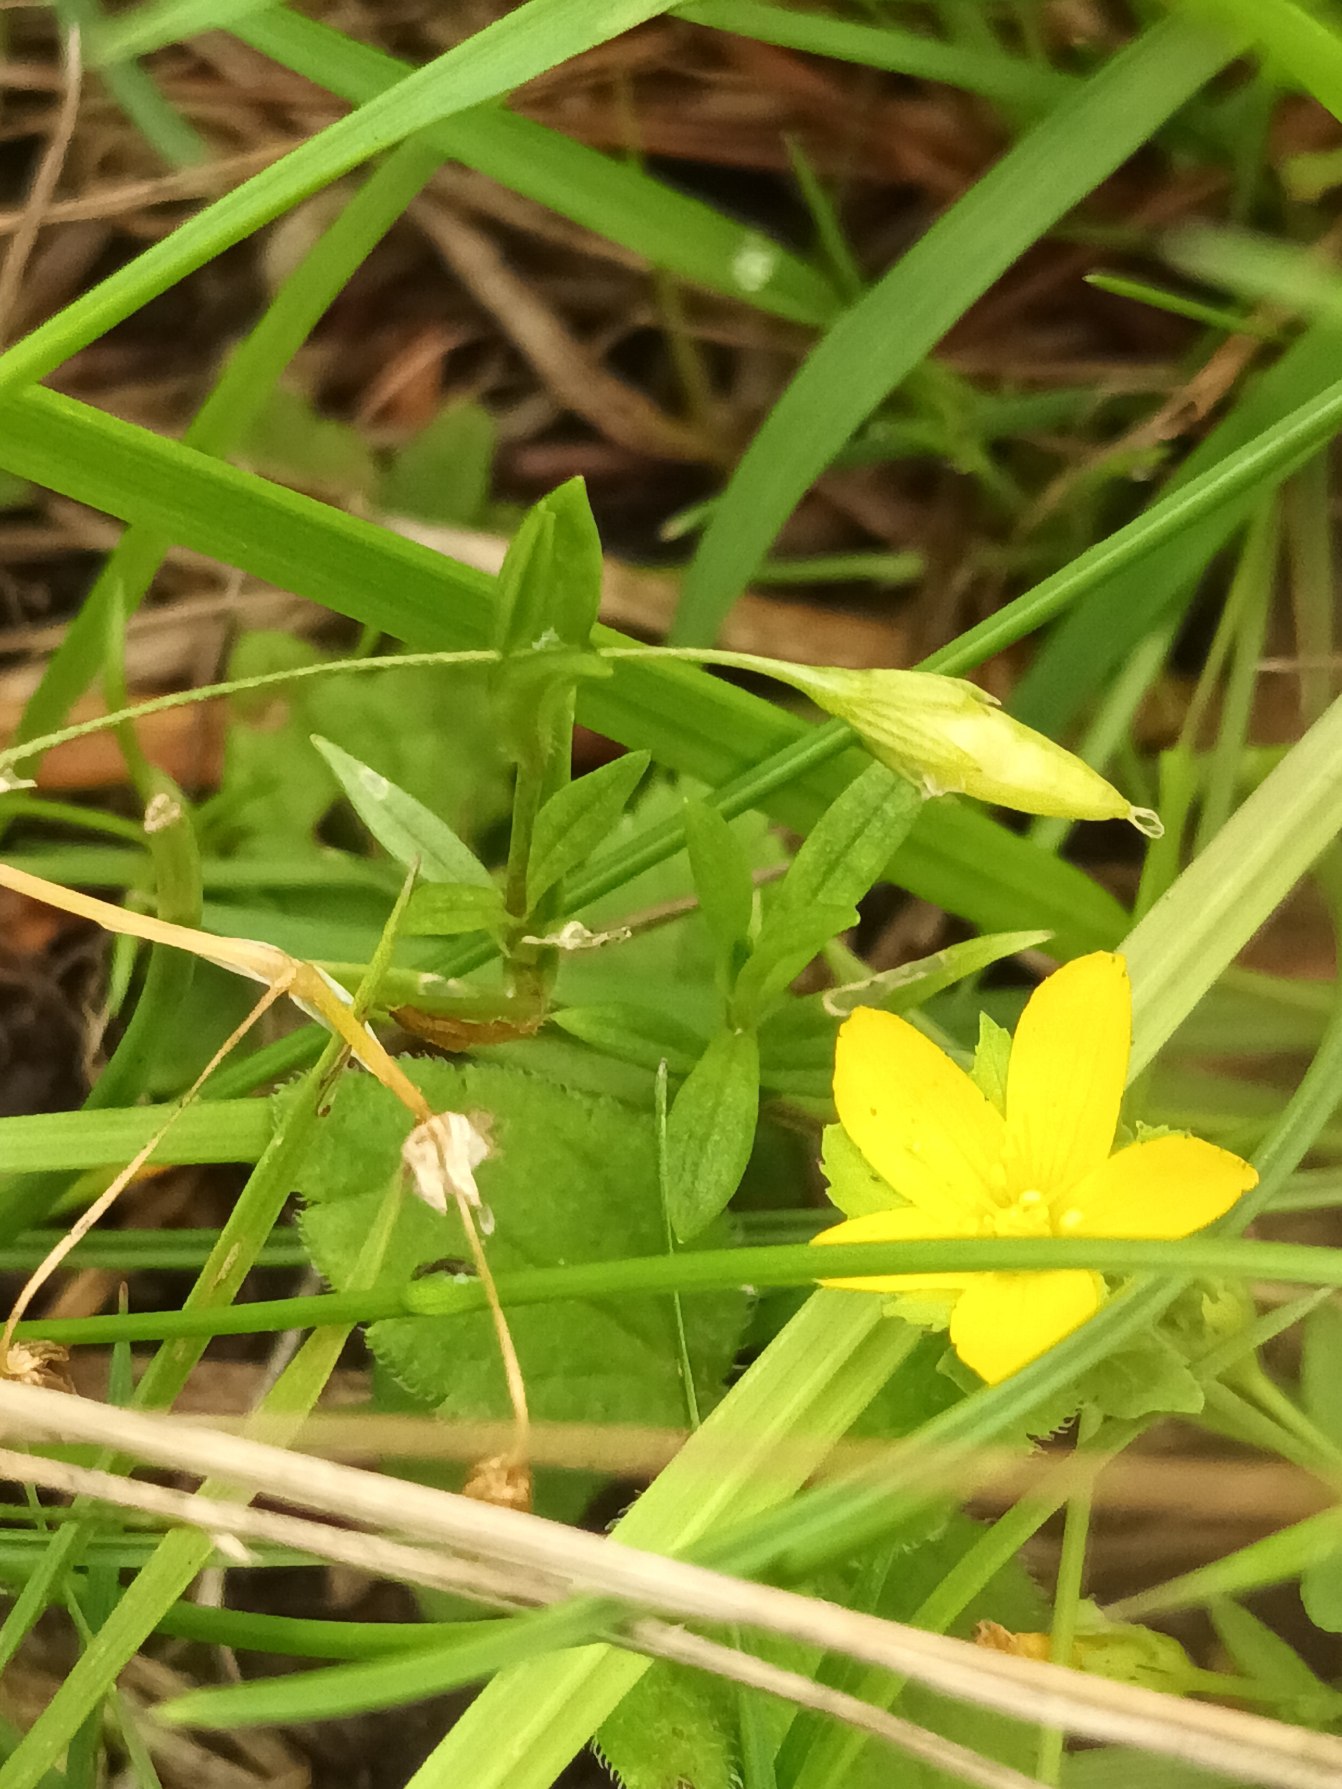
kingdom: Plantae
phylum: Tracheophyta
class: Magnoliopsida
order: Malpighiales
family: Hypericaceae
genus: Hypericum
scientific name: Hypericum humifusum
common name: Dværg-perikon
